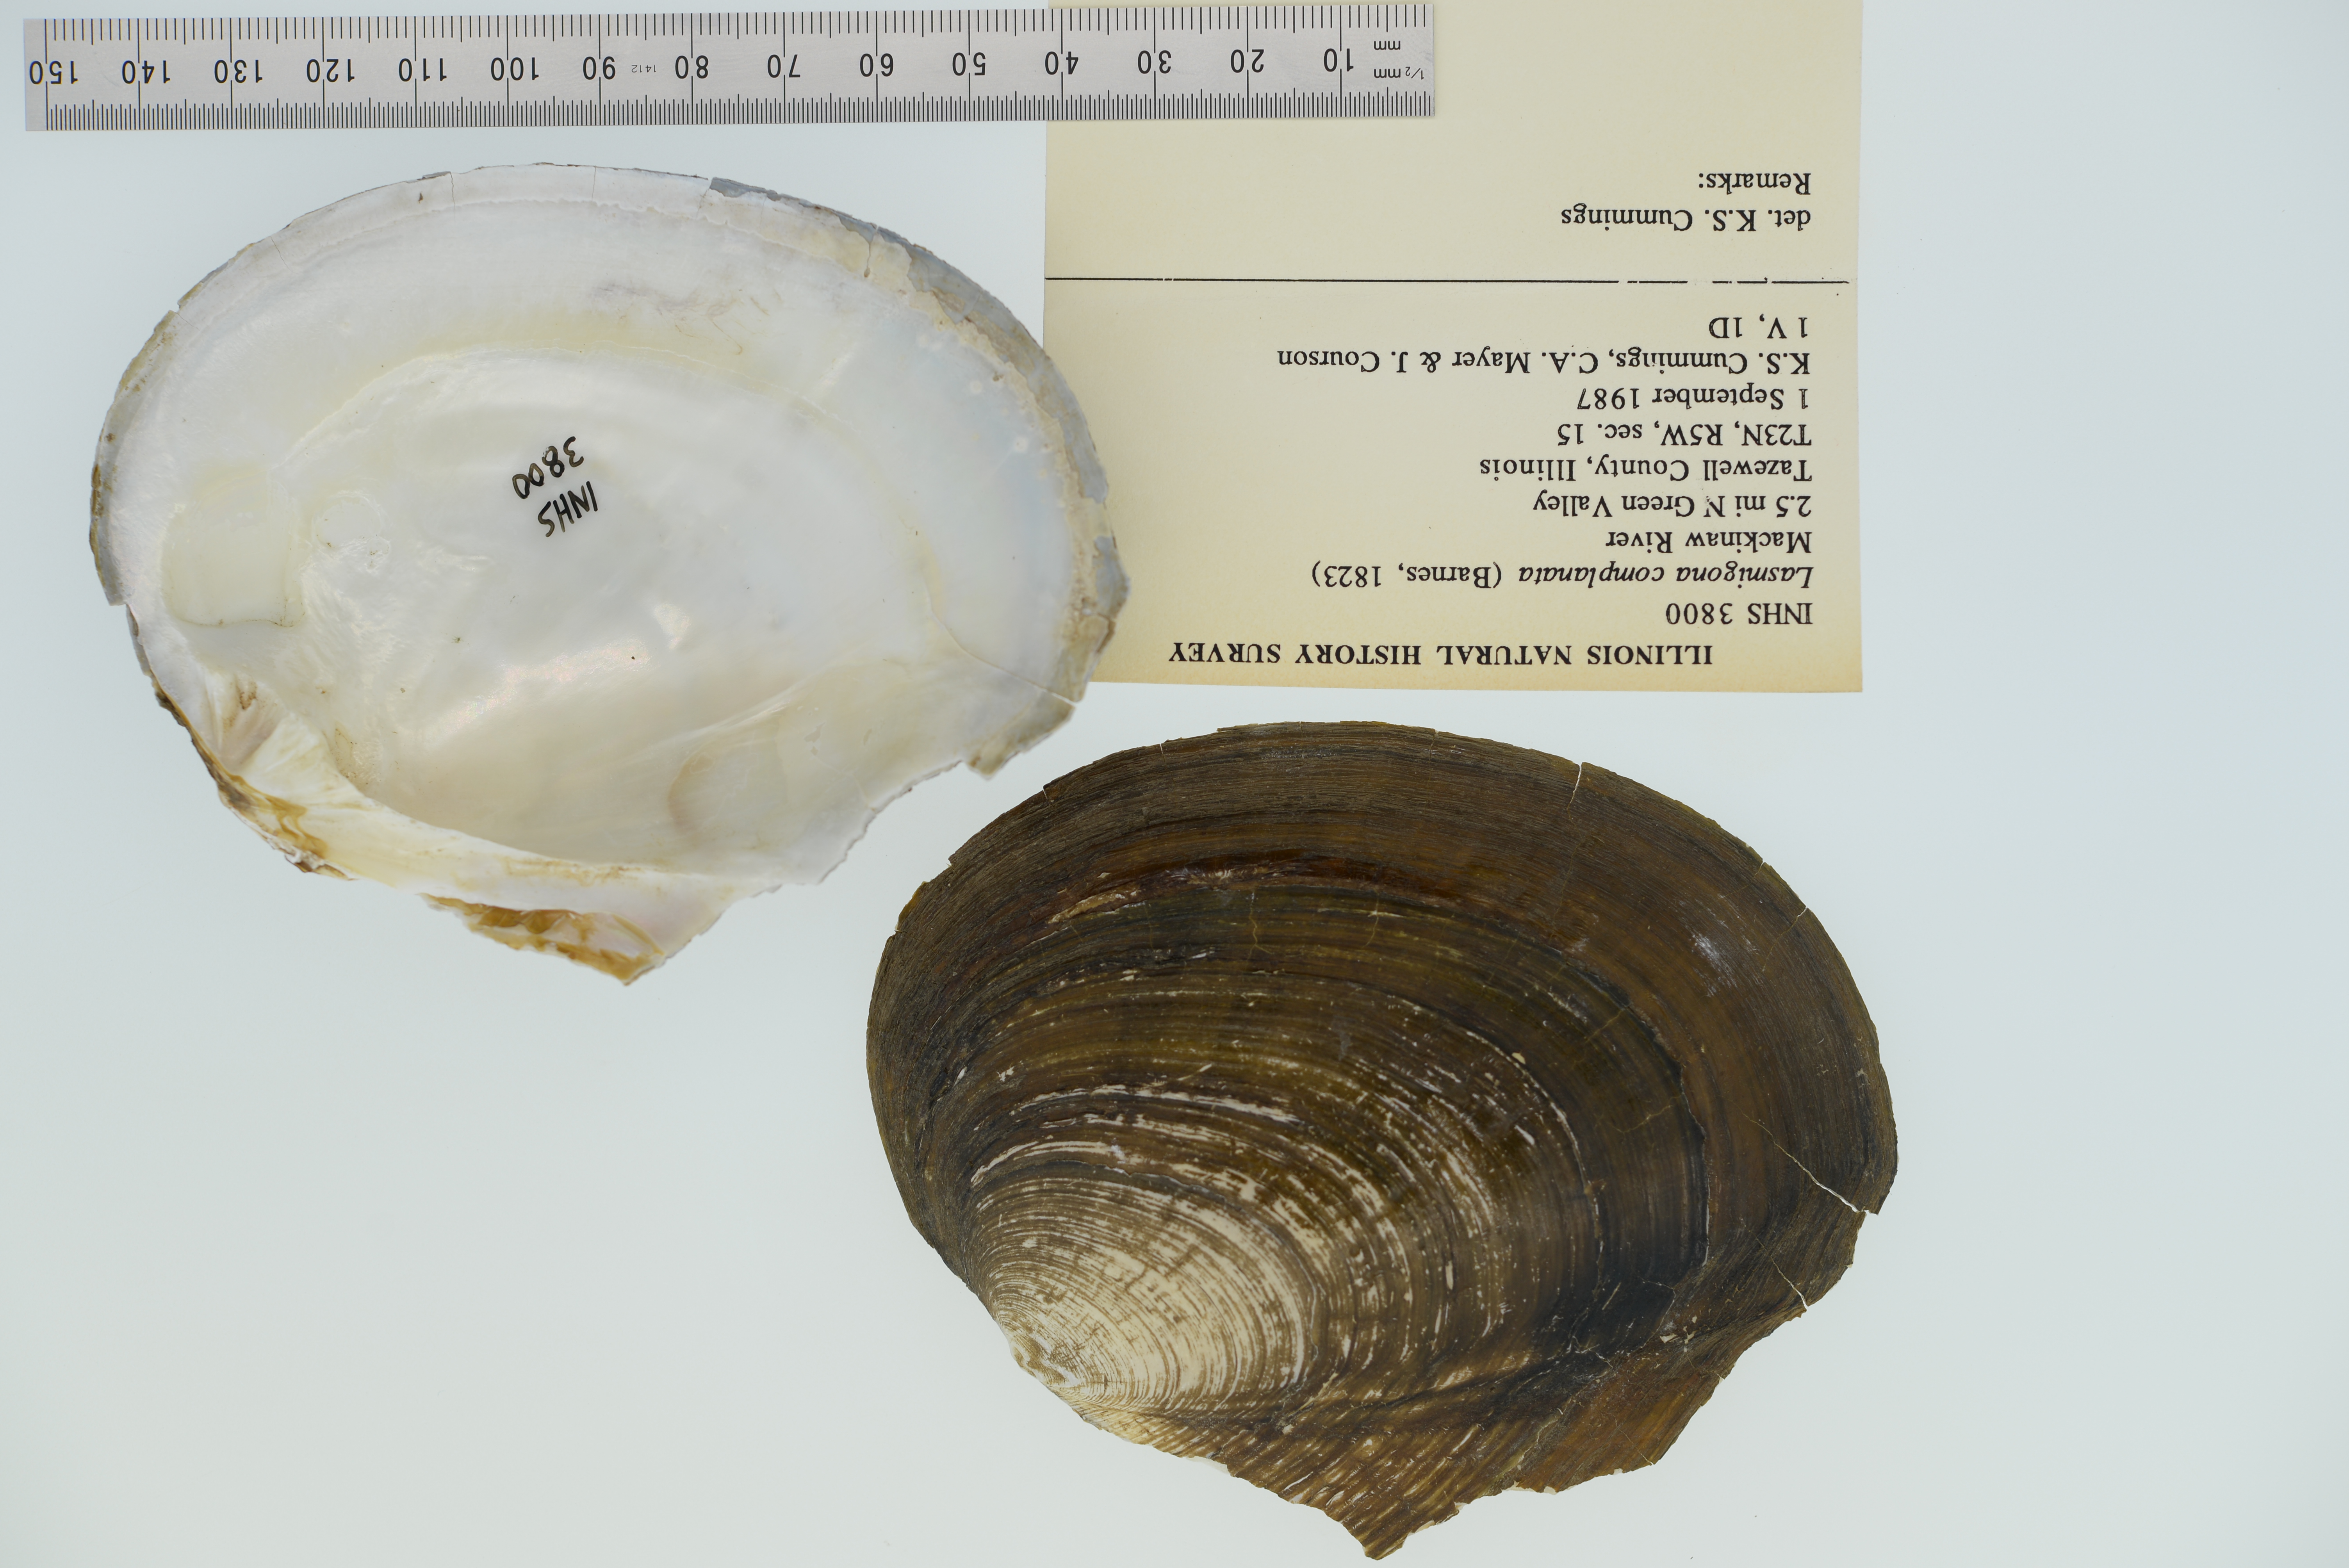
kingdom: Animalia
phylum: Mollusca
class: Bivalvia
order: Unionida
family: Unionidae
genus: Lasmigona
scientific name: Lasmigona complanata
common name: White heelsplitter
